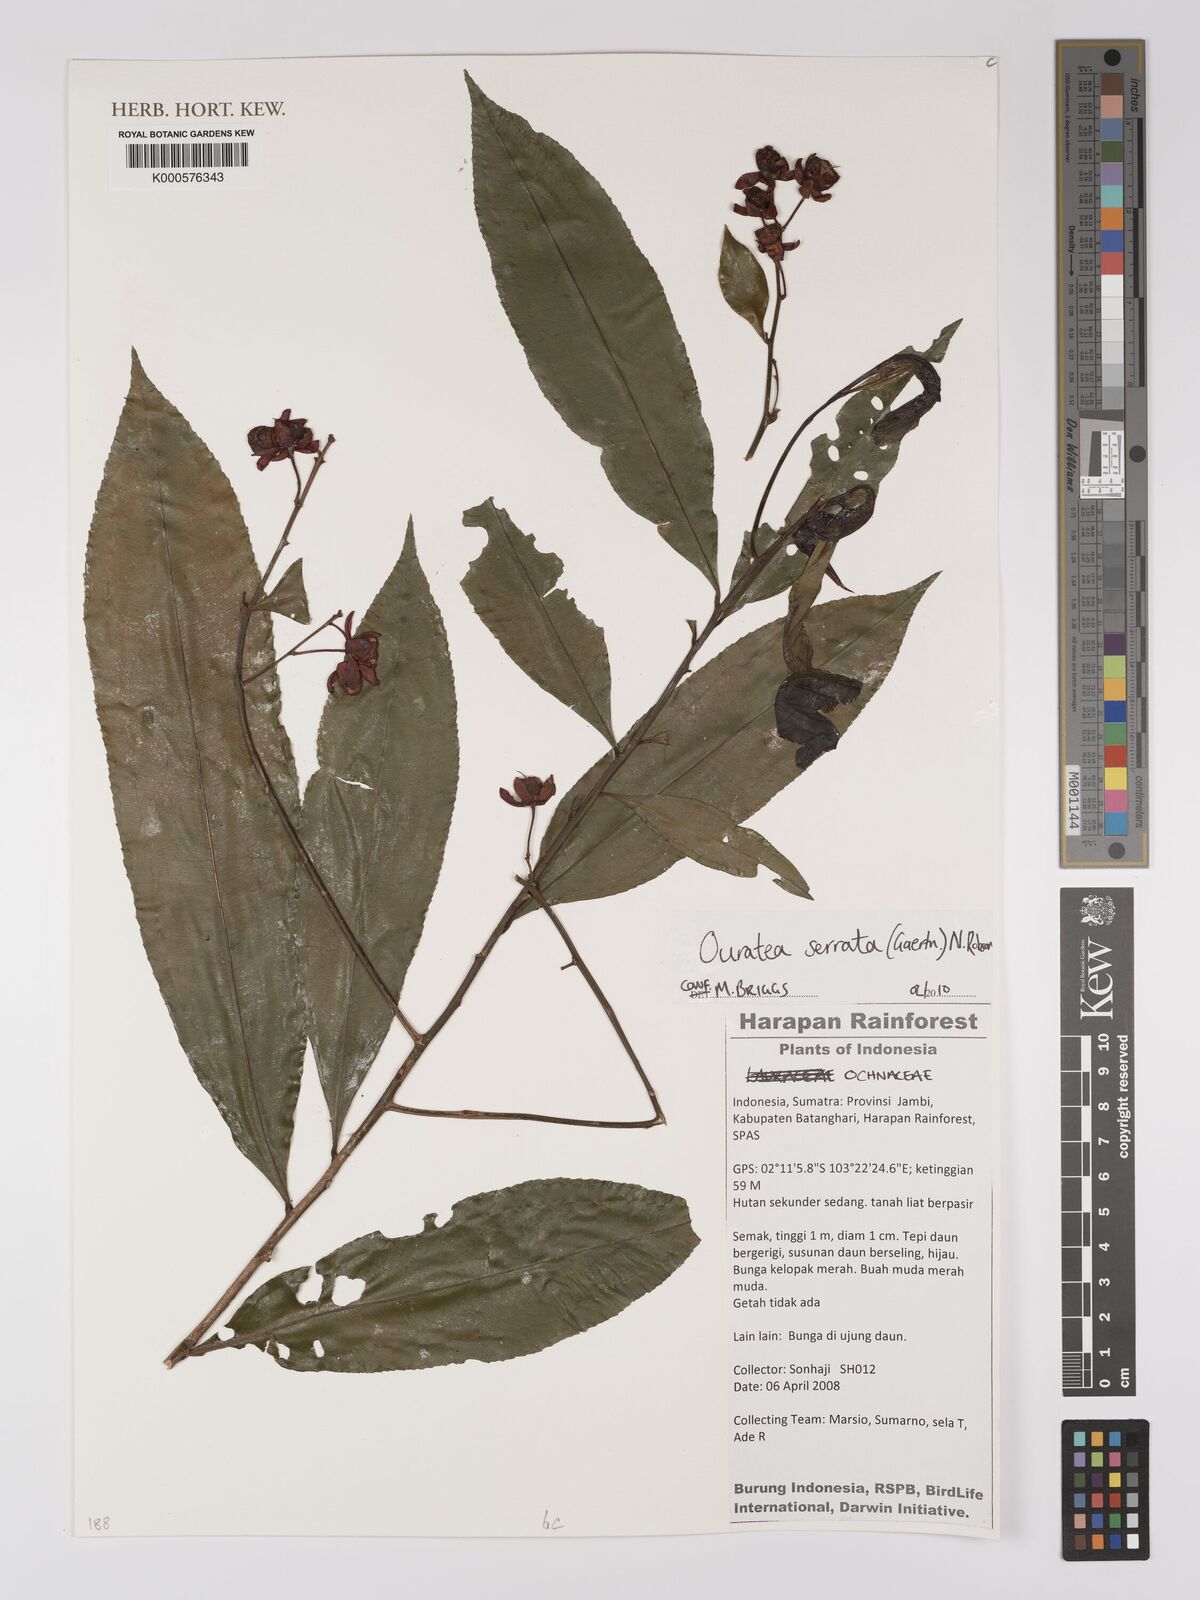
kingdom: Plantae
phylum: Tracheophyta
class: Magnoliopsida
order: Malpighiales
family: Ochnaceae
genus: Gomphia
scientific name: Gomphia serrata
